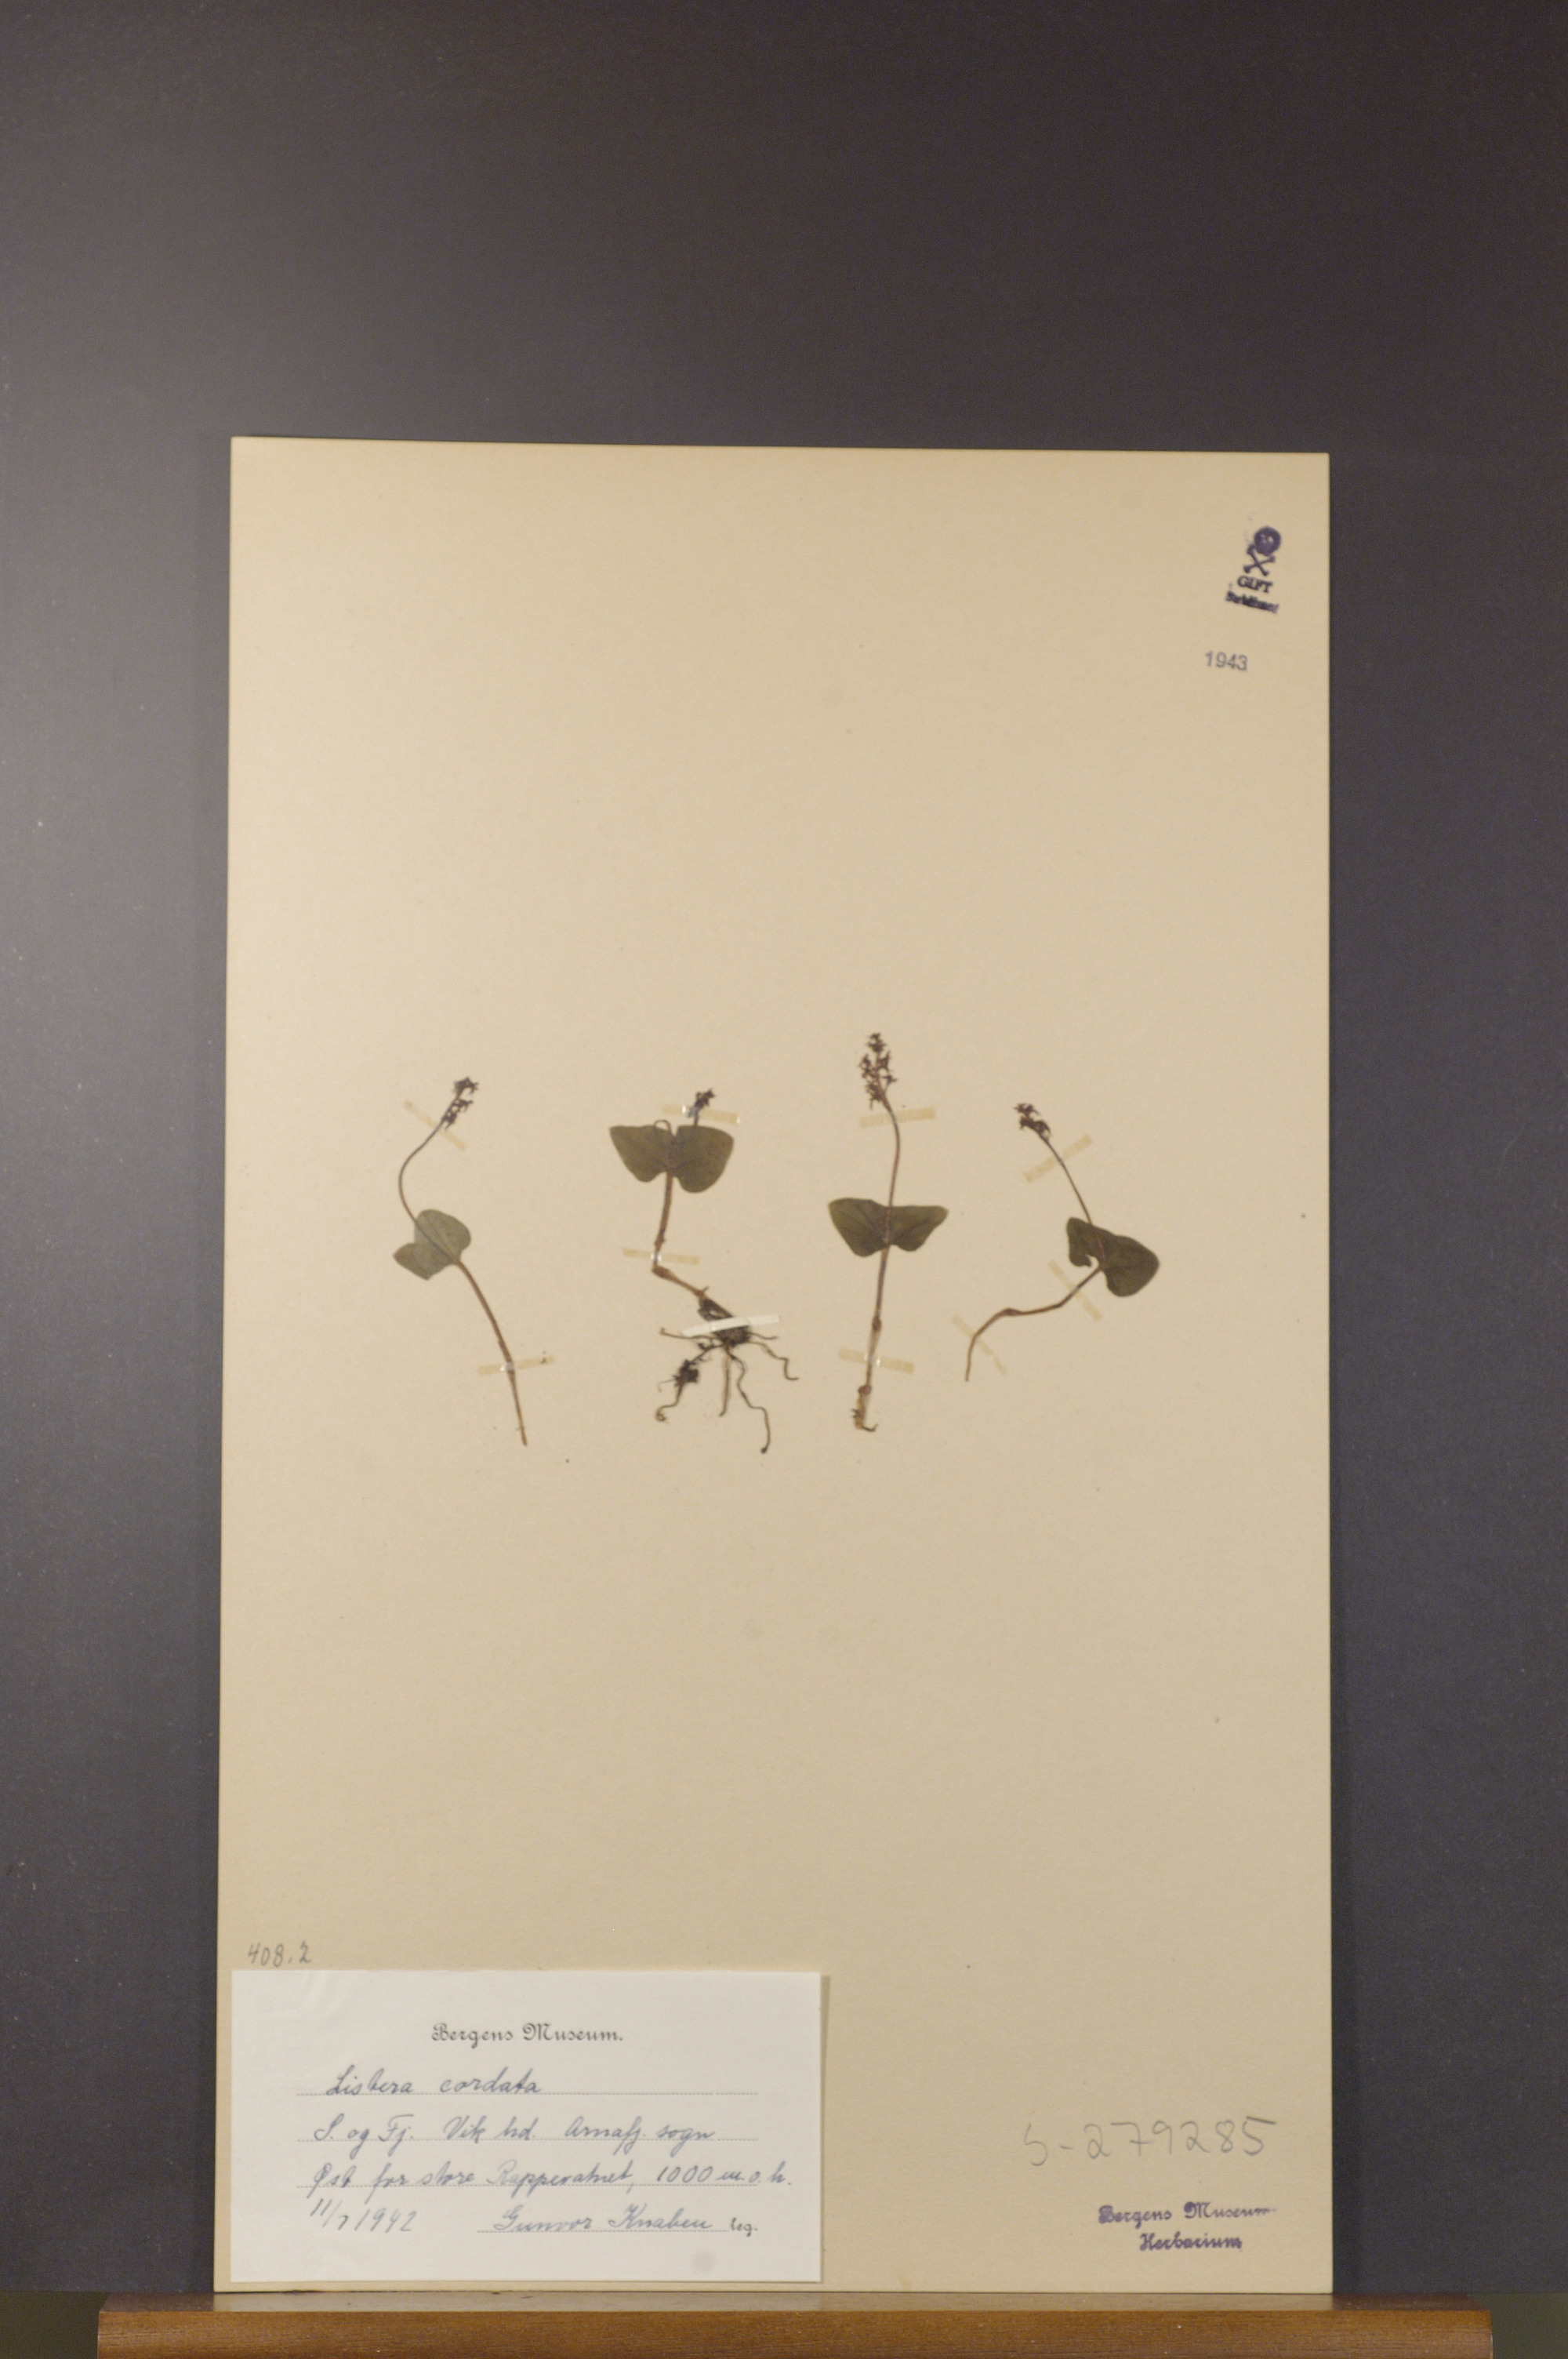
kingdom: Plantae
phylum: Tracheophyta
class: Liliopsida
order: Asparagales
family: Orchidaceae
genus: Neottia
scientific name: Neottia cordata
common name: Lesser twayblade
